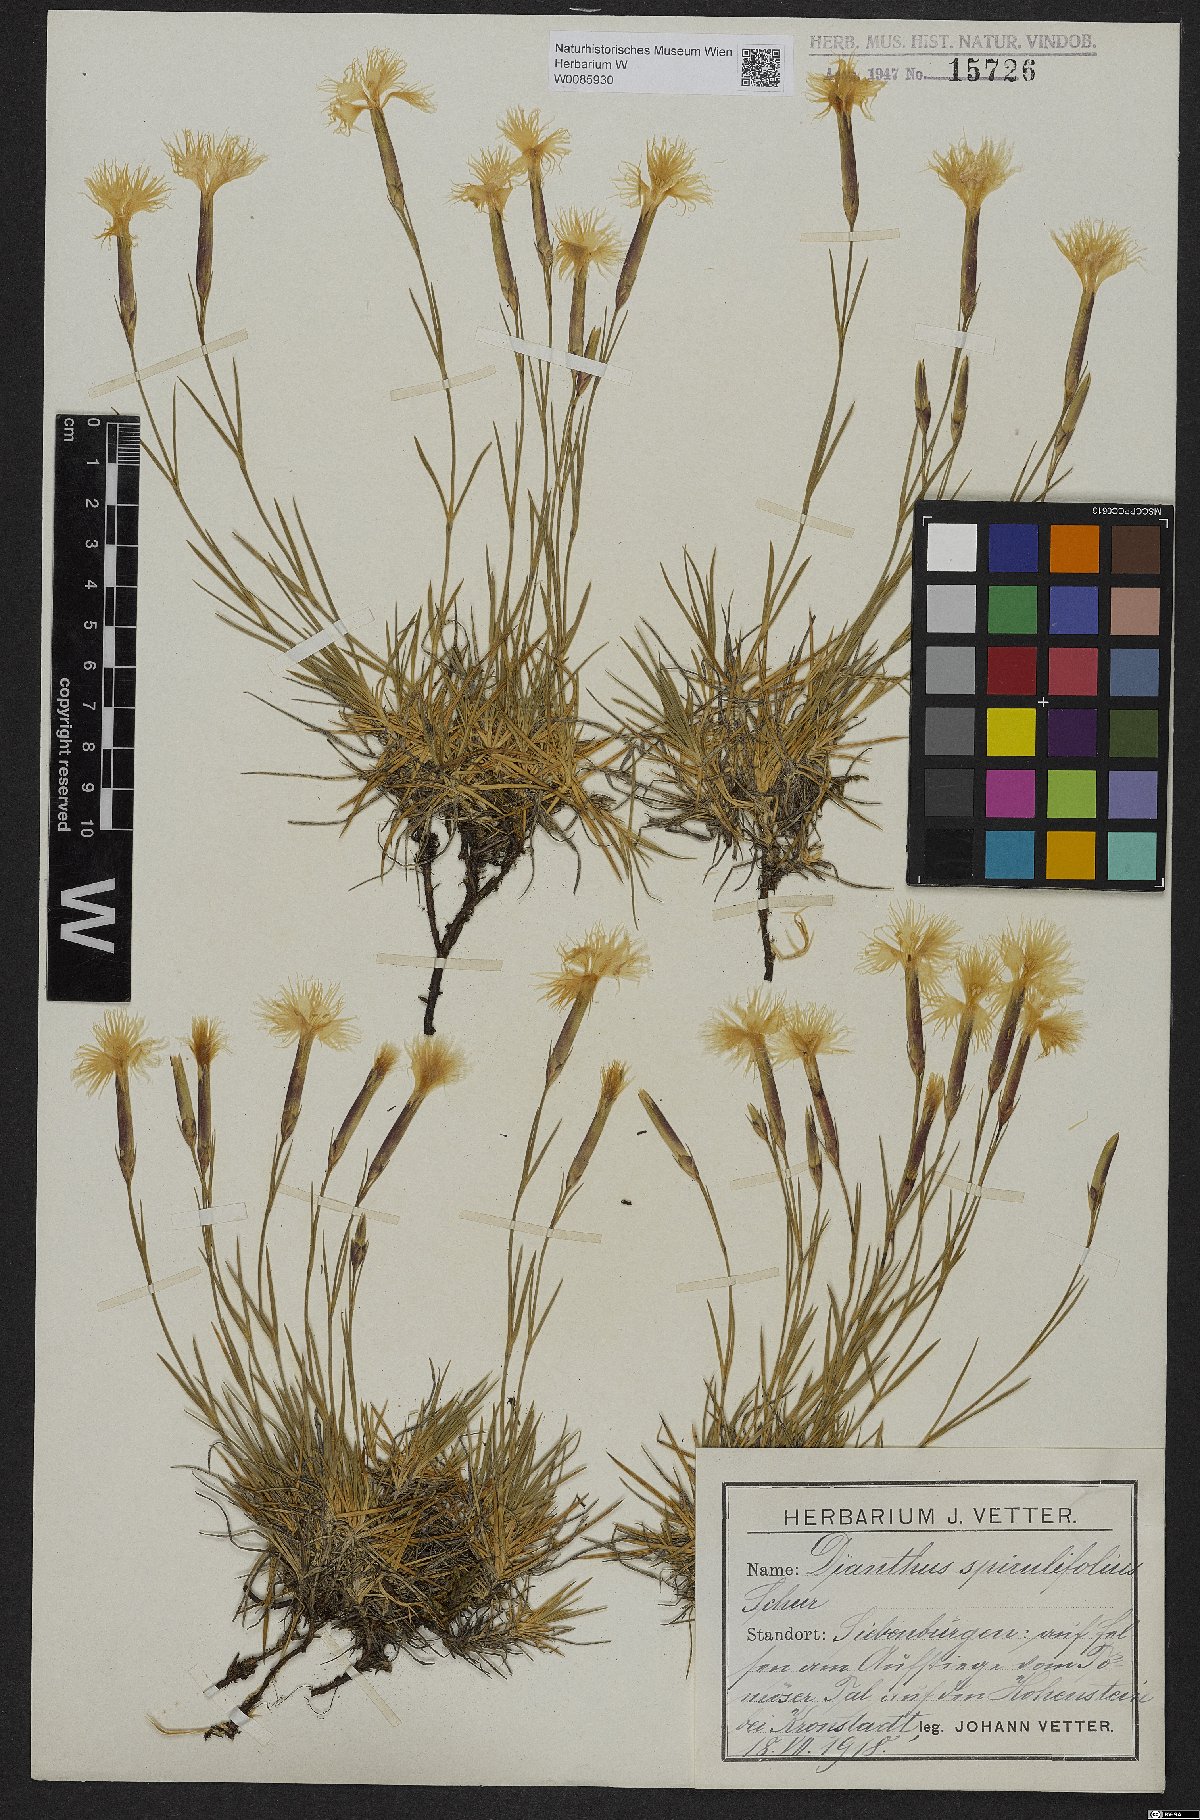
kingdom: Plantae
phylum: Tracheophyta
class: Magnoliopsida
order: Caryophyllales
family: Caryophyllaceae
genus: Dianthus
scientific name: Dianthus spiculifolius
